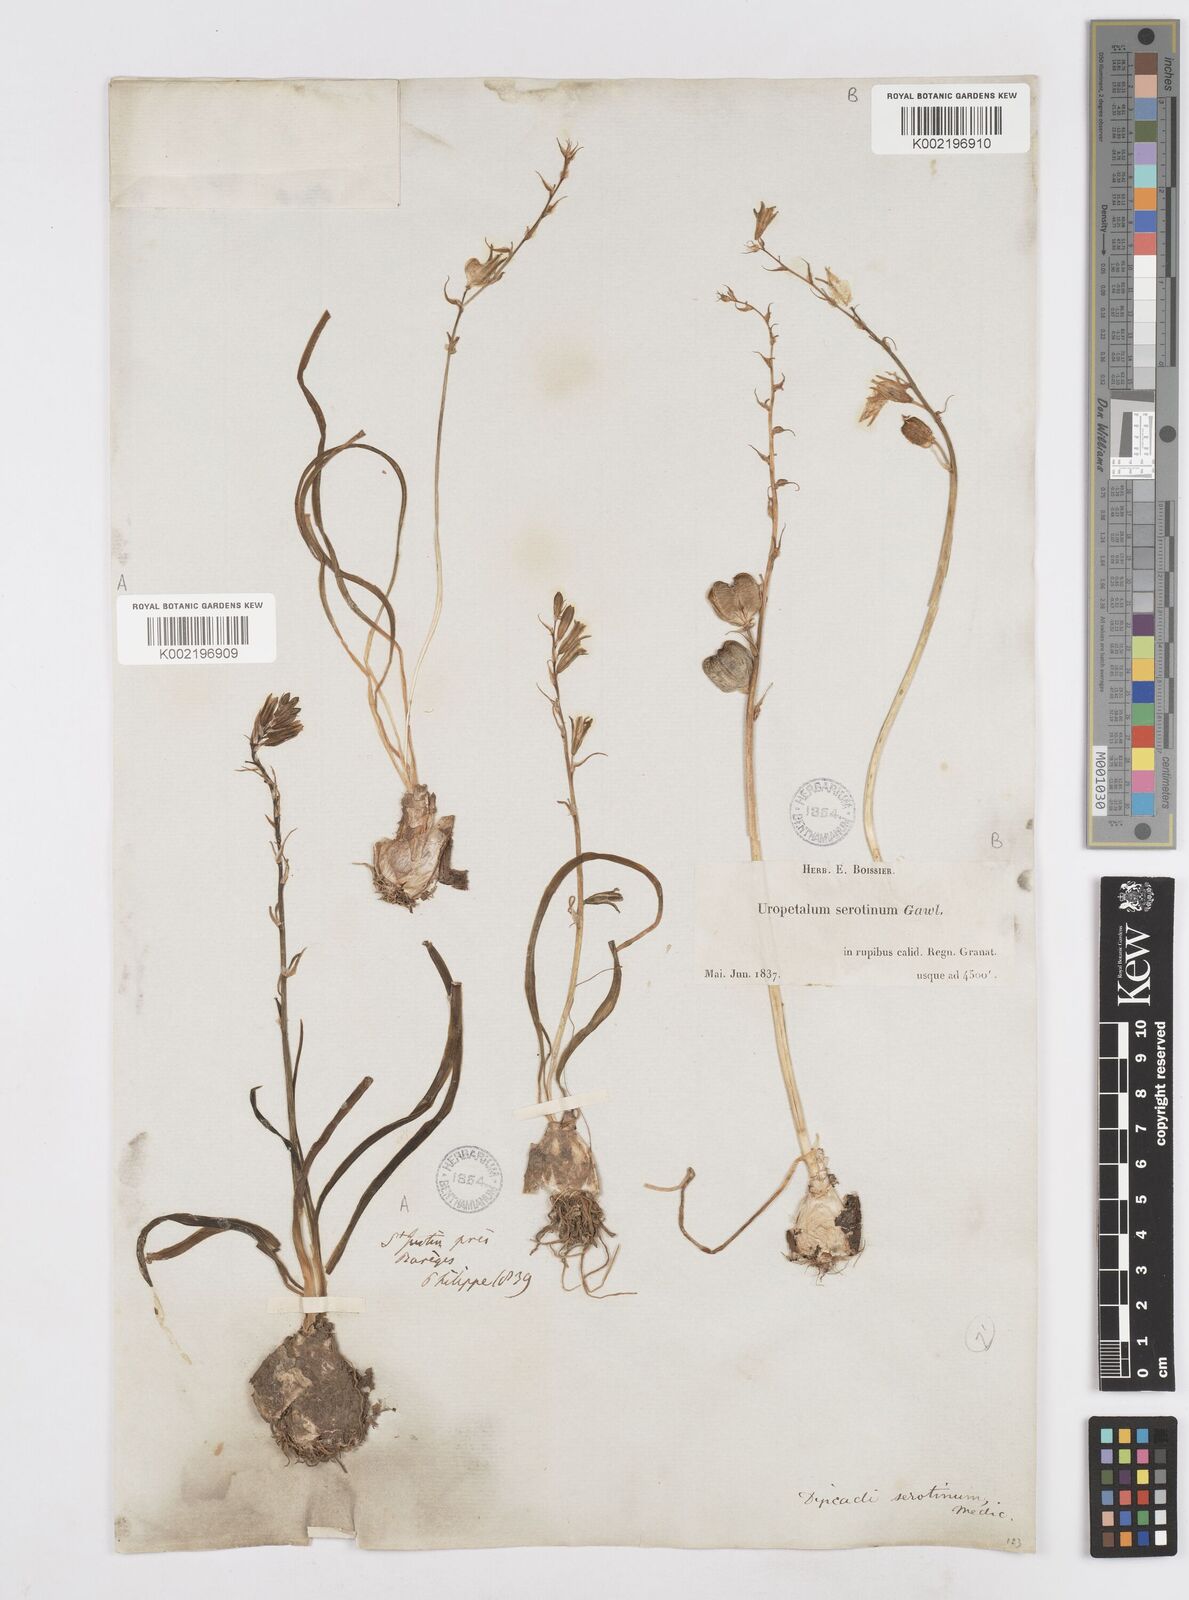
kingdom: Plantae
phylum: Tracheophyta
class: Liliopsida
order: Asparagales
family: Asparagaceae
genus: Dipcadi
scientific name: Dipcadi serotinum
